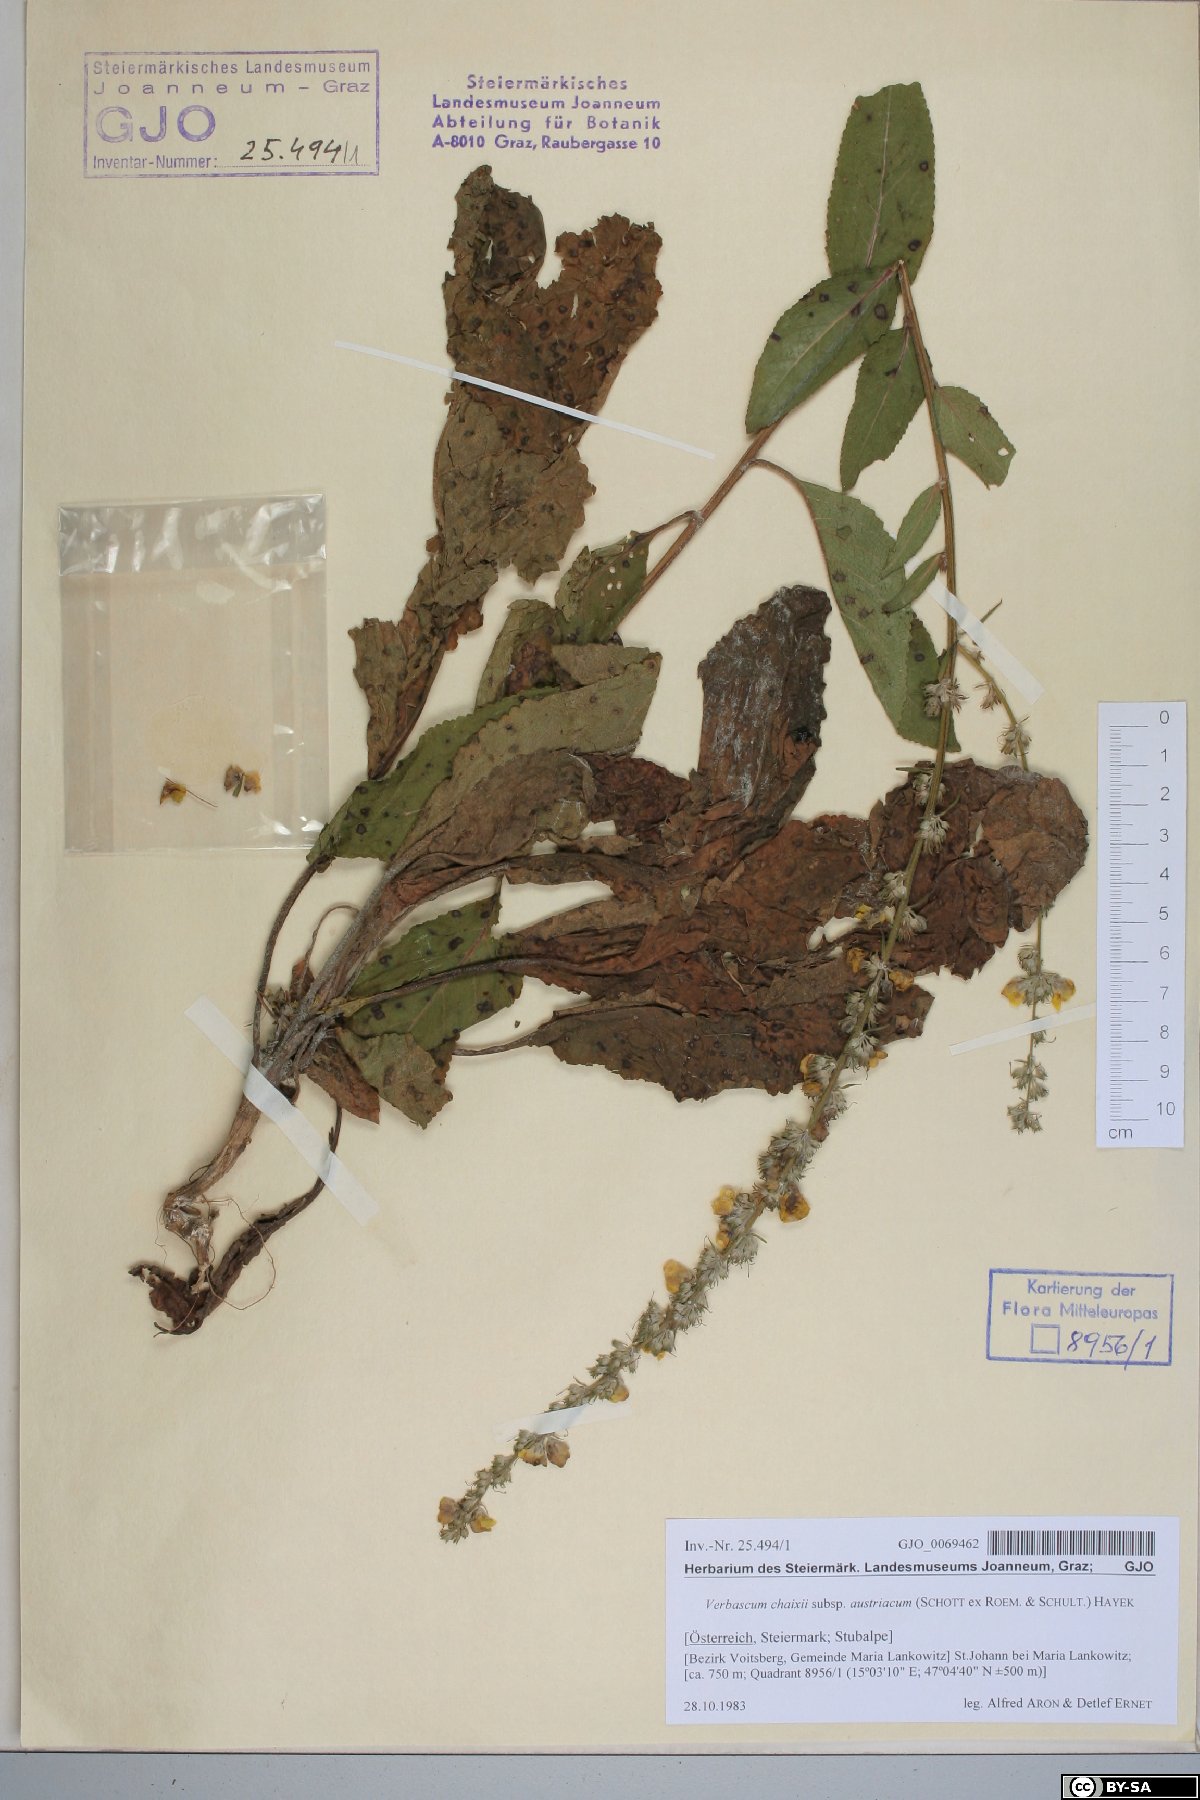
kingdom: Plantae
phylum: Tracheophyta
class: Magnoliopsida
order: Lamiales
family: Scrophulariaceae
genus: Verbascum
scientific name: Verbascum chaixii
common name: Nettle-leaved mullein
